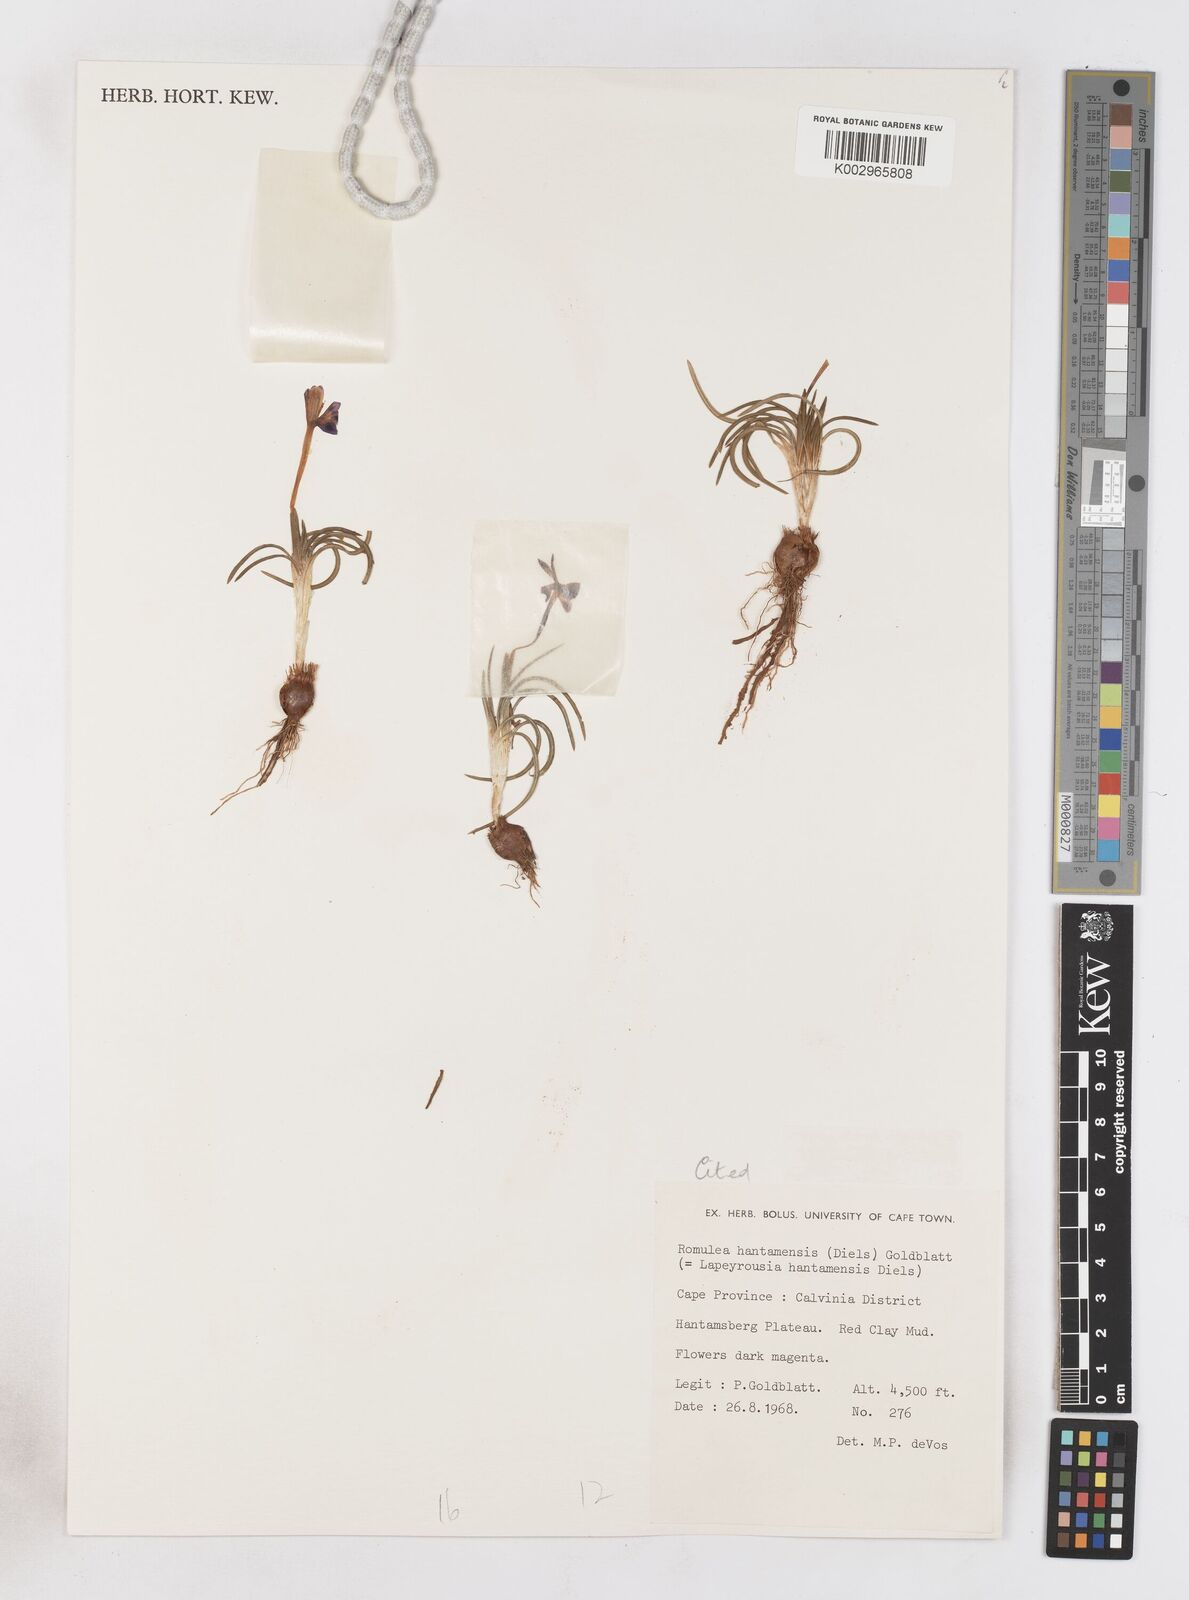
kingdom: Plantae
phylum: Tracheophyta
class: Liliopsida
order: Asparagales
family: Iridaceae
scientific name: Iridaceae
